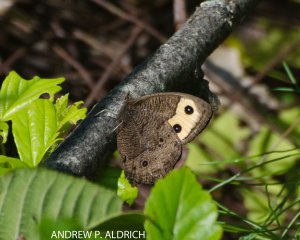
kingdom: Animalia
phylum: Arthropoda
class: Insecta
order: Lepidoptera
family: Nymphalidae
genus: Cercyonis
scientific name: Cercyonis pegala
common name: Common Wood-Nymph
